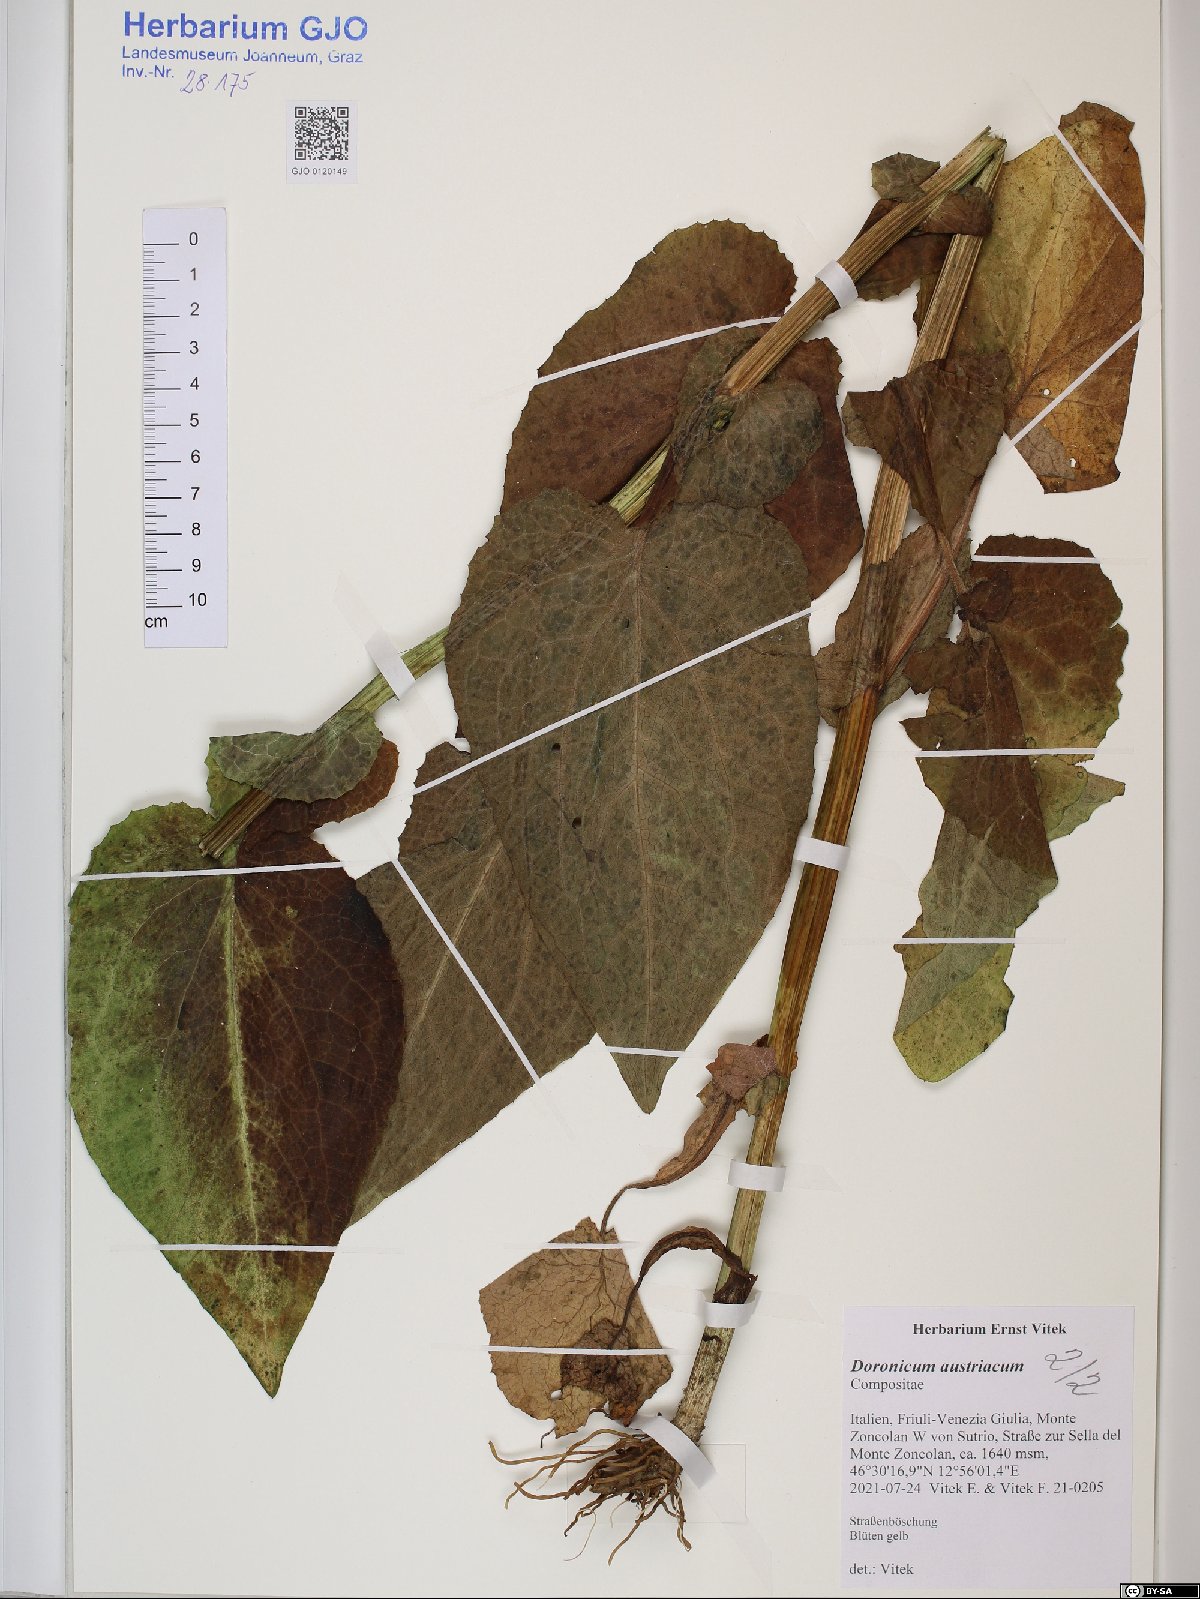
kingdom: Plantae
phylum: Tracheophyta
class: Magnoliopsida
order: Asterales
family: Asteraceae
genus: Doronicum
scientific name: Doronicum austriacum
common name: Austrian leopard's-bane
